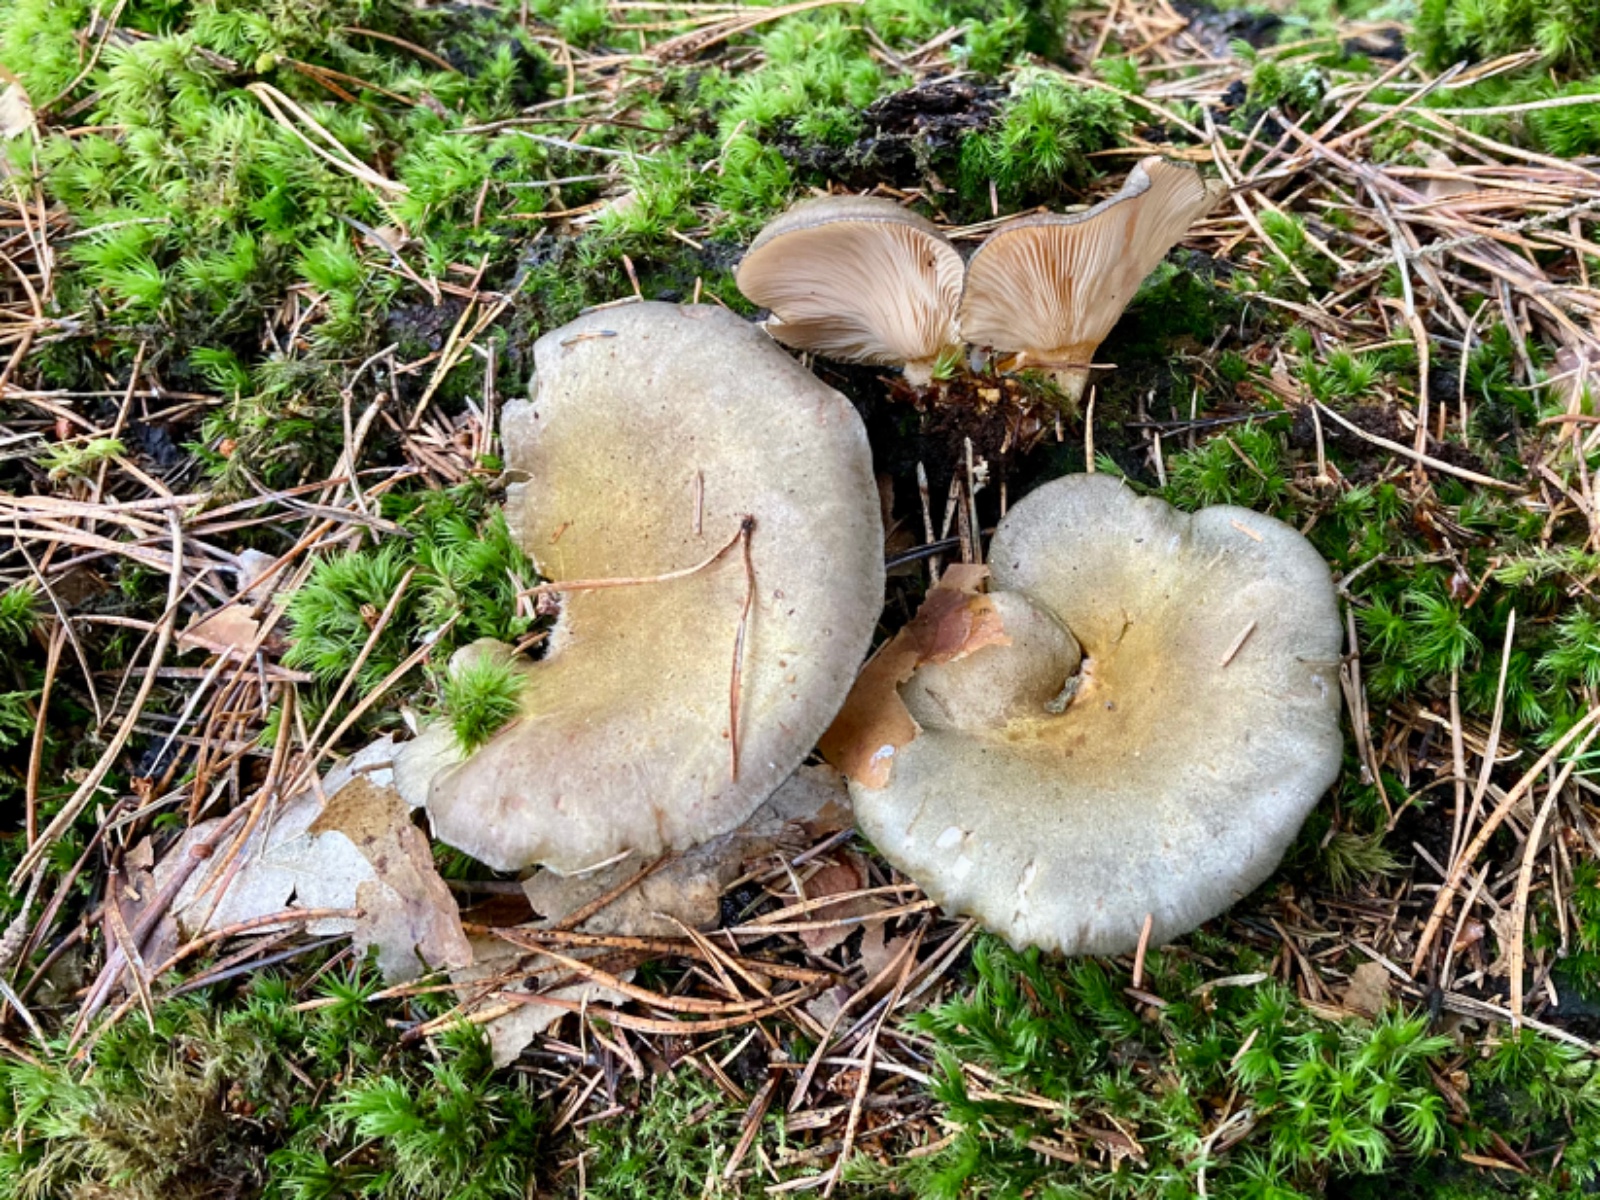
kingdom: Fungi
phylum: Basidiomycota
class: Agaricomycetes
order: Agaricales
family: Sarcomyxaceae
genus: Sarcomyxa
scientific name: Sarcomyxa serotina
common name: gummihat
